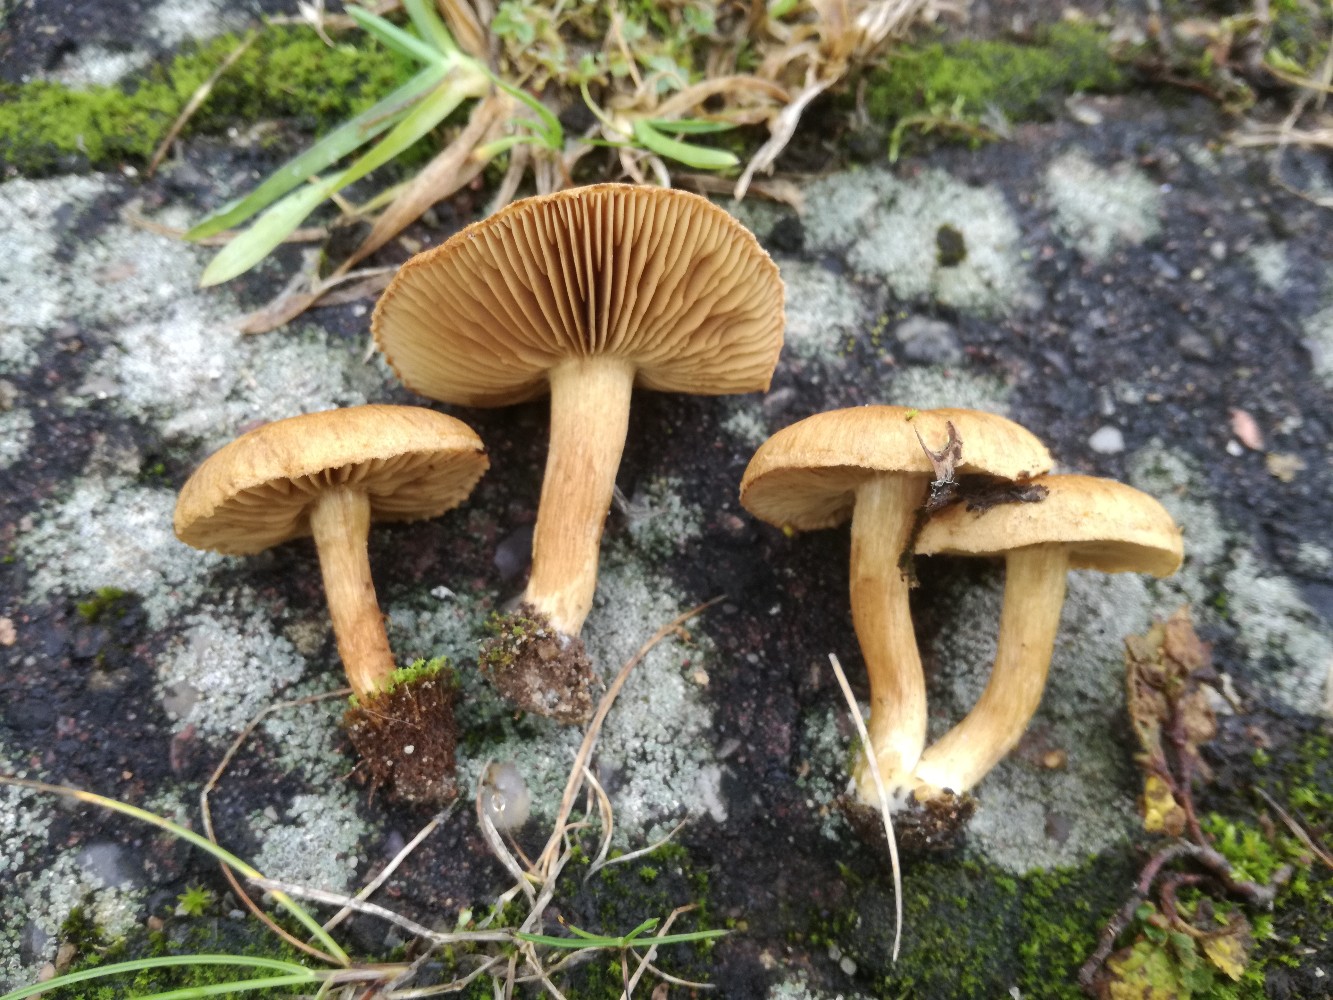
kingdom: Fungi
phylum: Basidiomycota
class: Agaricomycetes
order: Agaricales
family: Inocybaceae
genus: Inocybe
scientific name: Inocybe dulcamara
